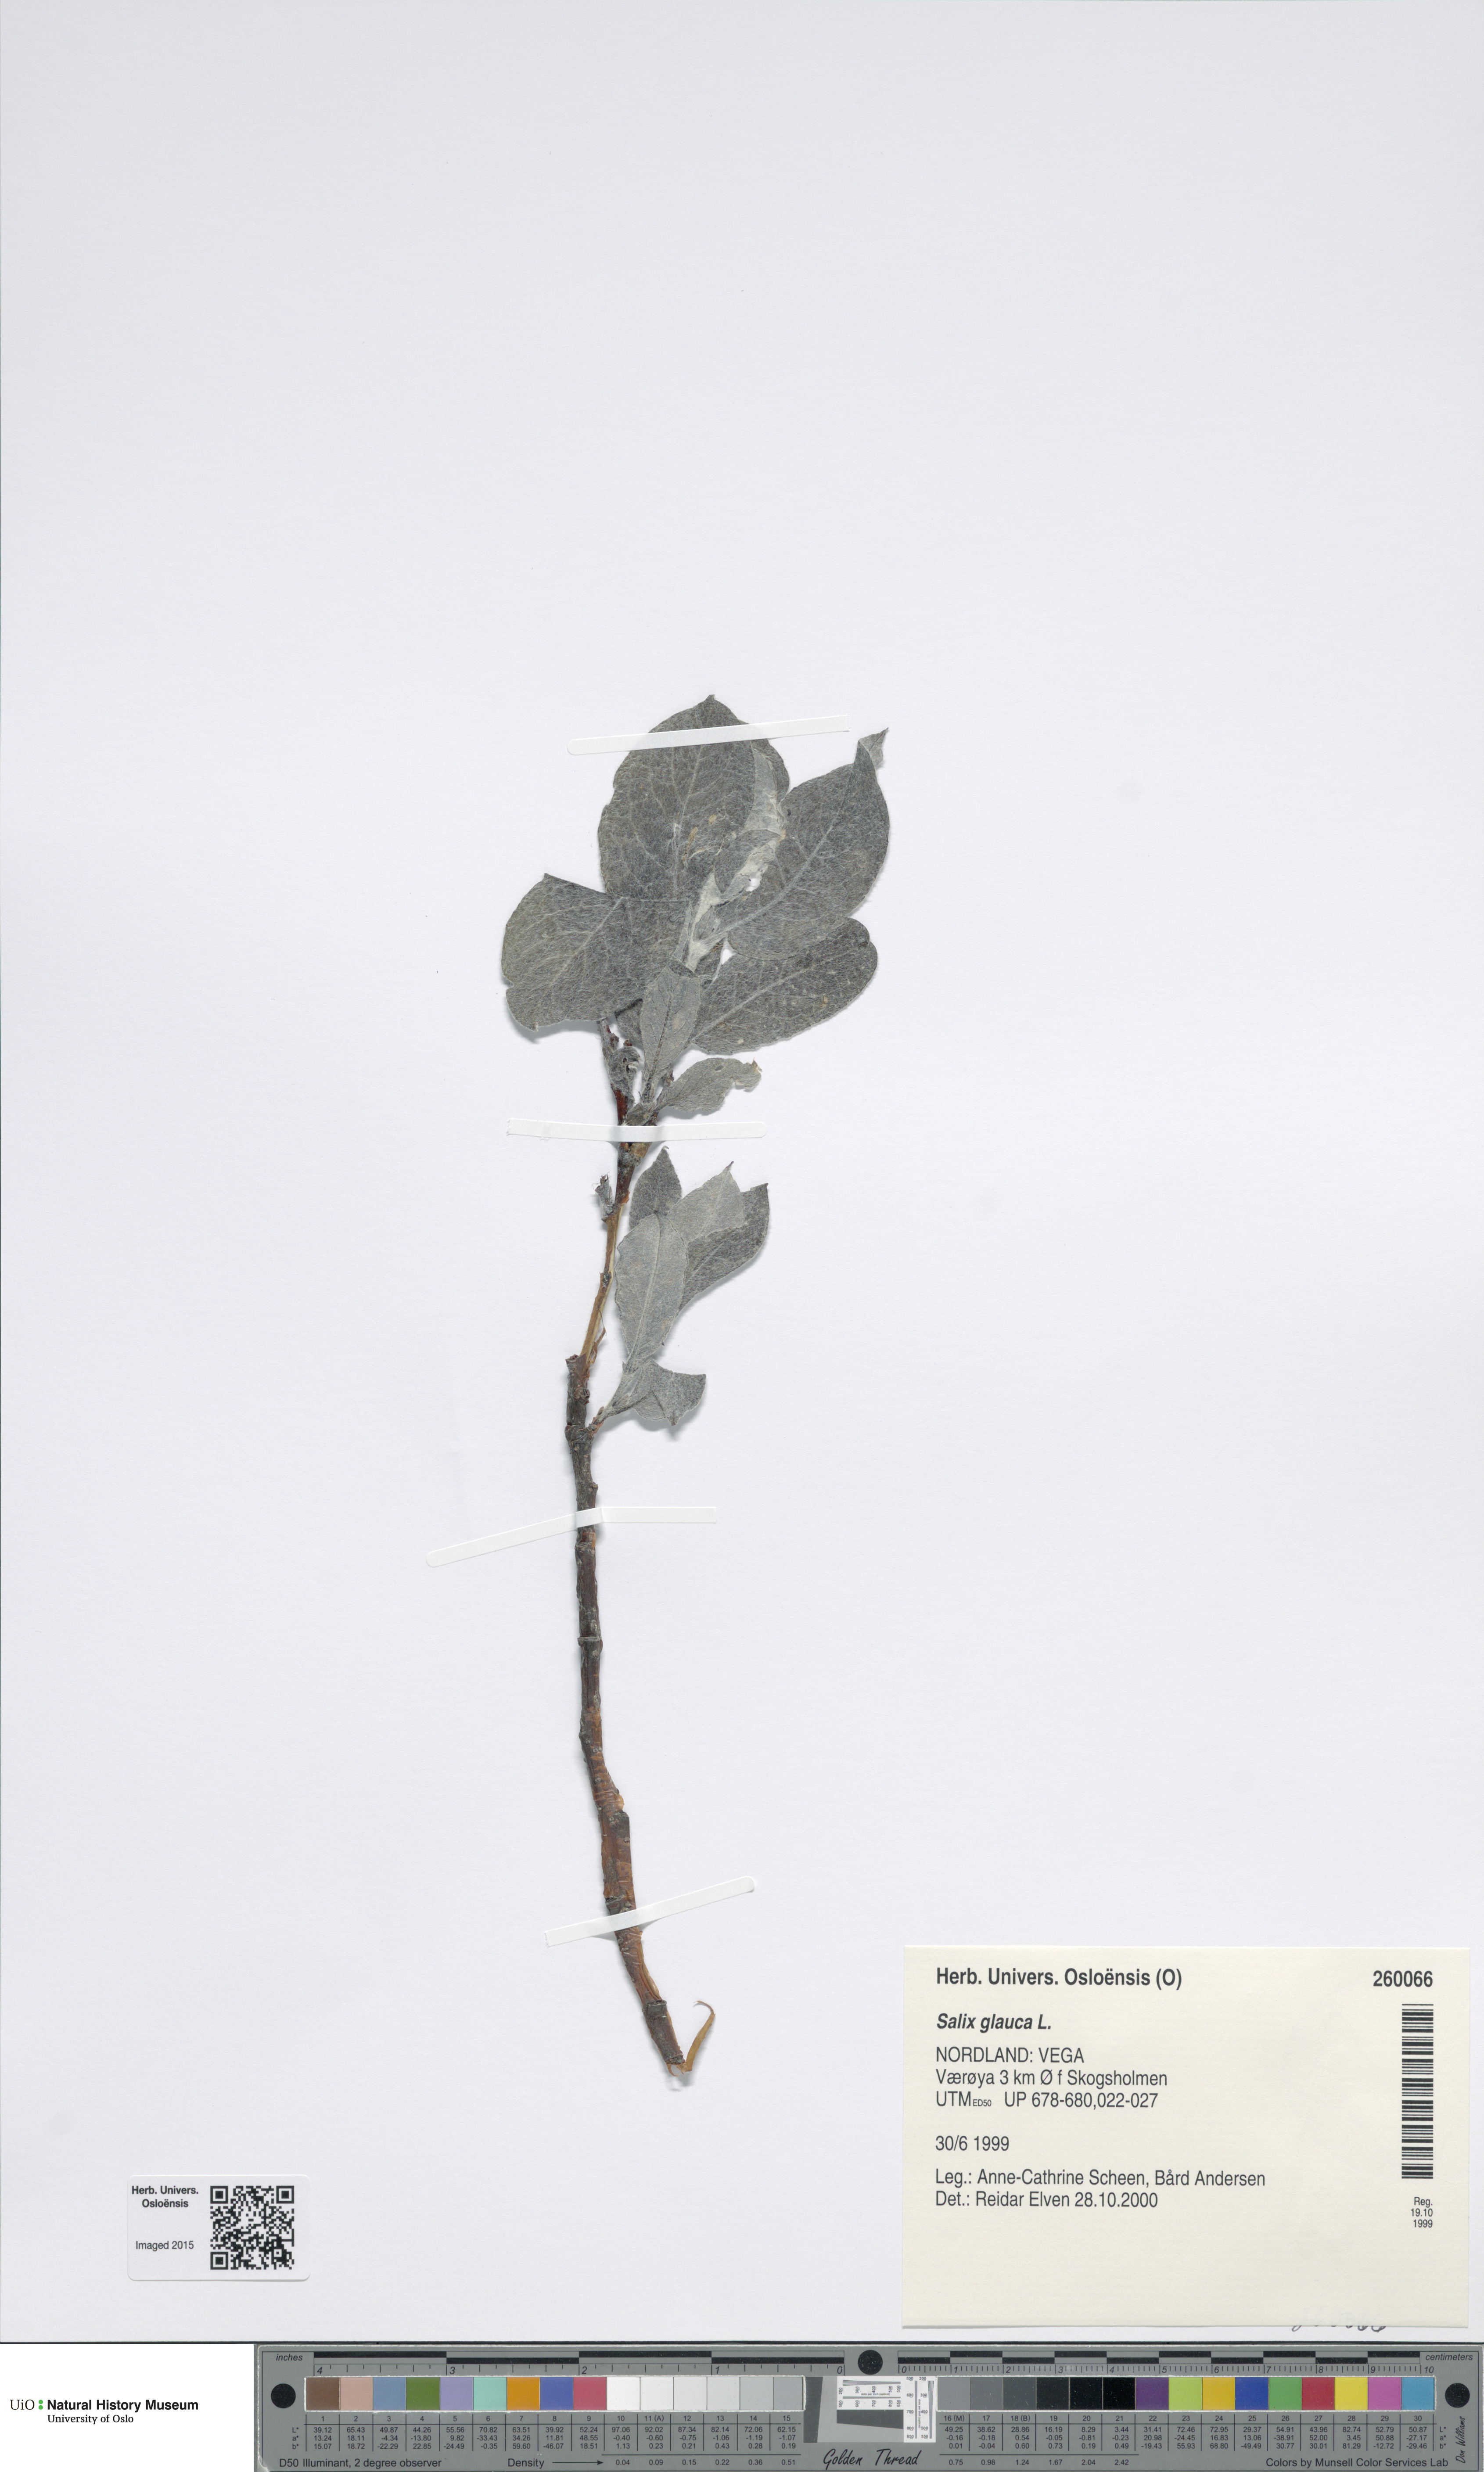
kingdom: Plantae
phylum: Tracheophyta
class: Magnoliopsida
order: Malpighiales
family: Salicaceae
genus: Salix
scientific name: Salix glauca
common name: Glaucous willow
